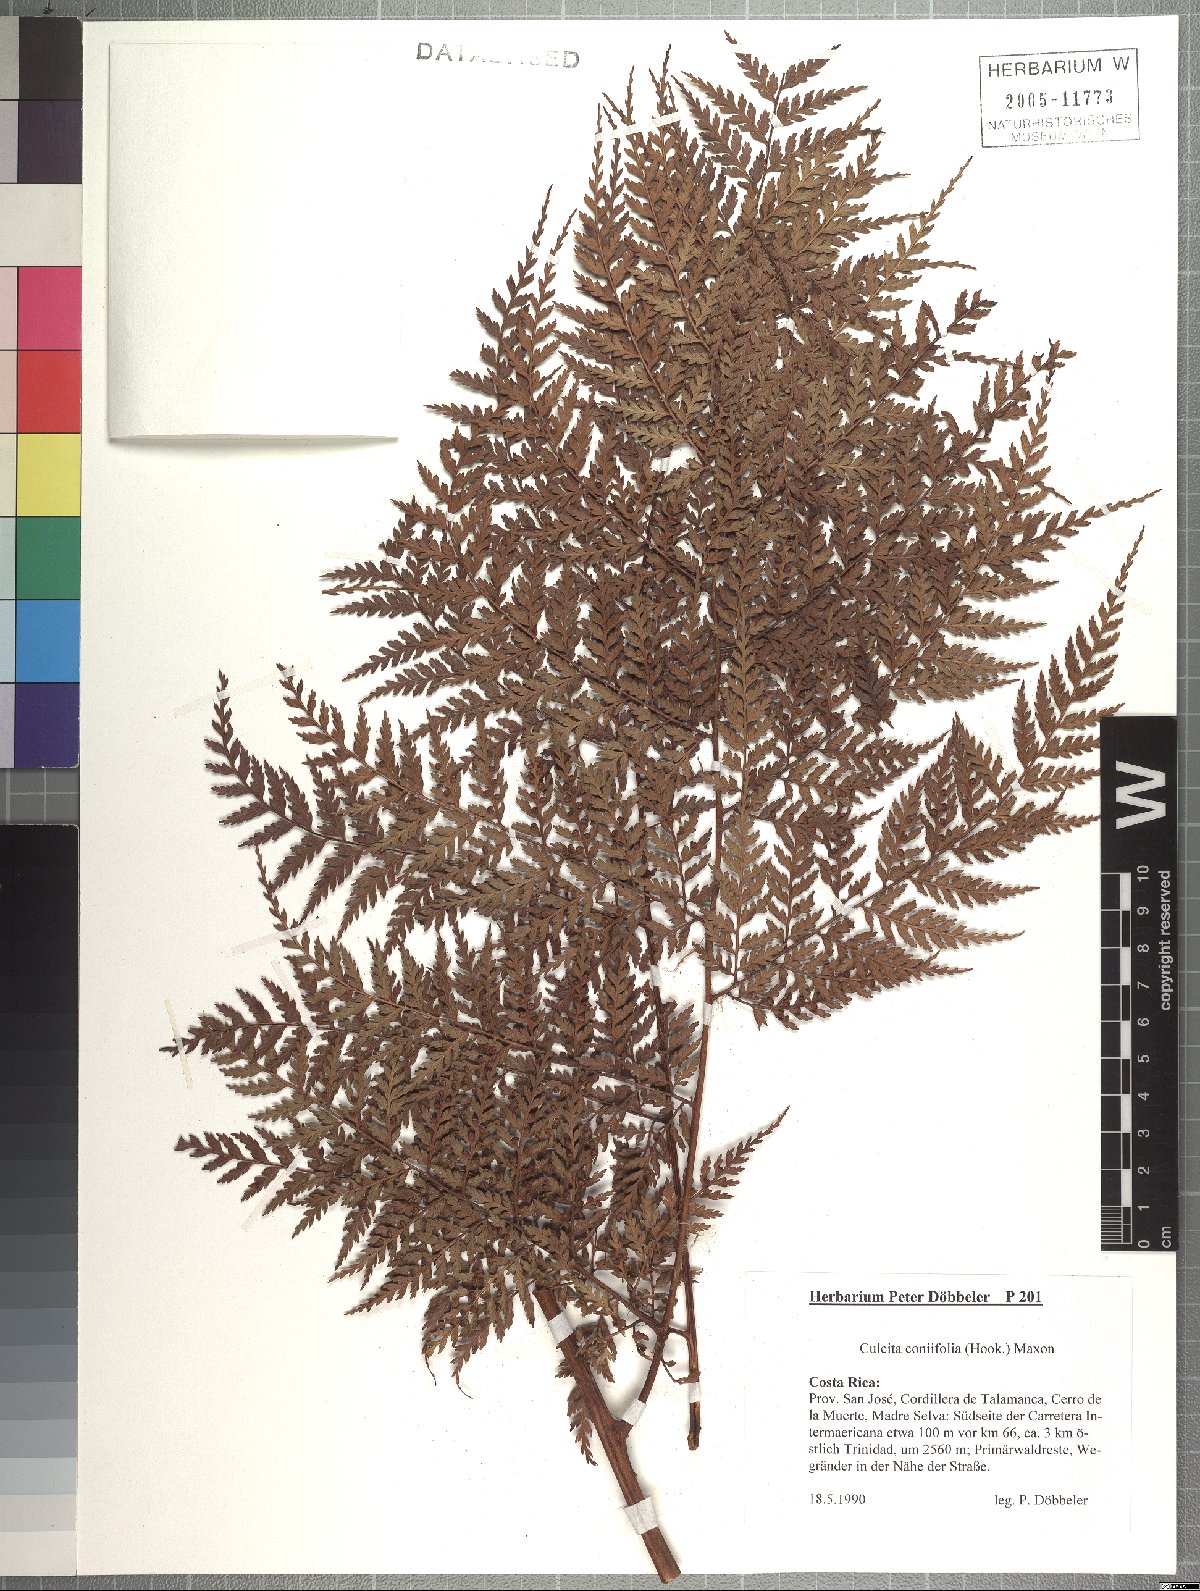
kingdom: Plantae
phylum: Tracheophyta
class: Polypodiopsida
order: Cyatheales
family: Culcitaceae
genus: Culcita
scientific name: Culcita macrocarpa
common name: Woolly tree fern
